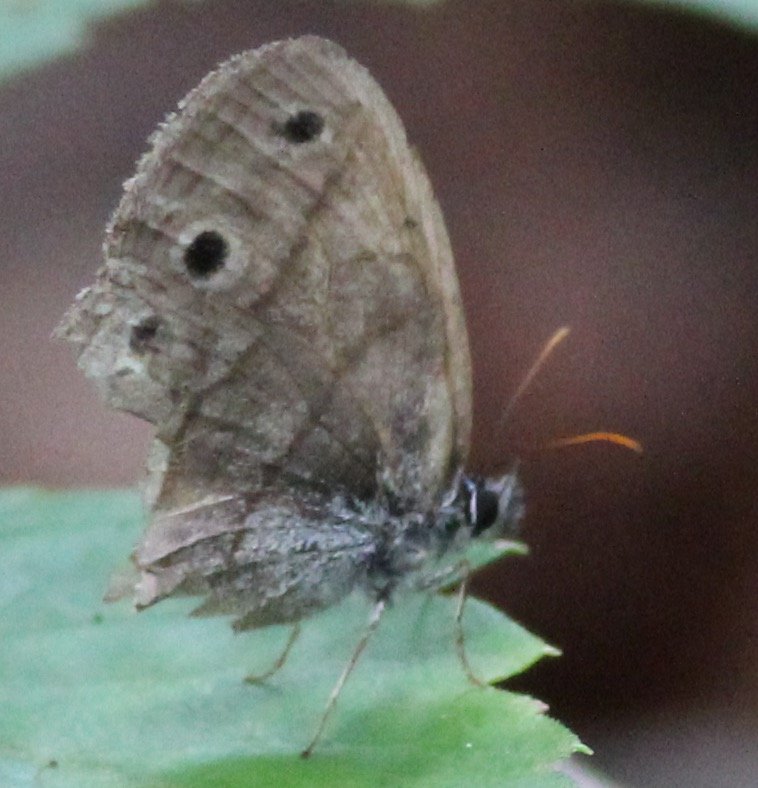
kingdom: Animalia
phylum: Arthropoda
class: Insecta
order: Lepidoptera
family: Nymphalidae
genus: Euptychia
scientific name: Euptychia cymela
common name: Little Wood Satyr
